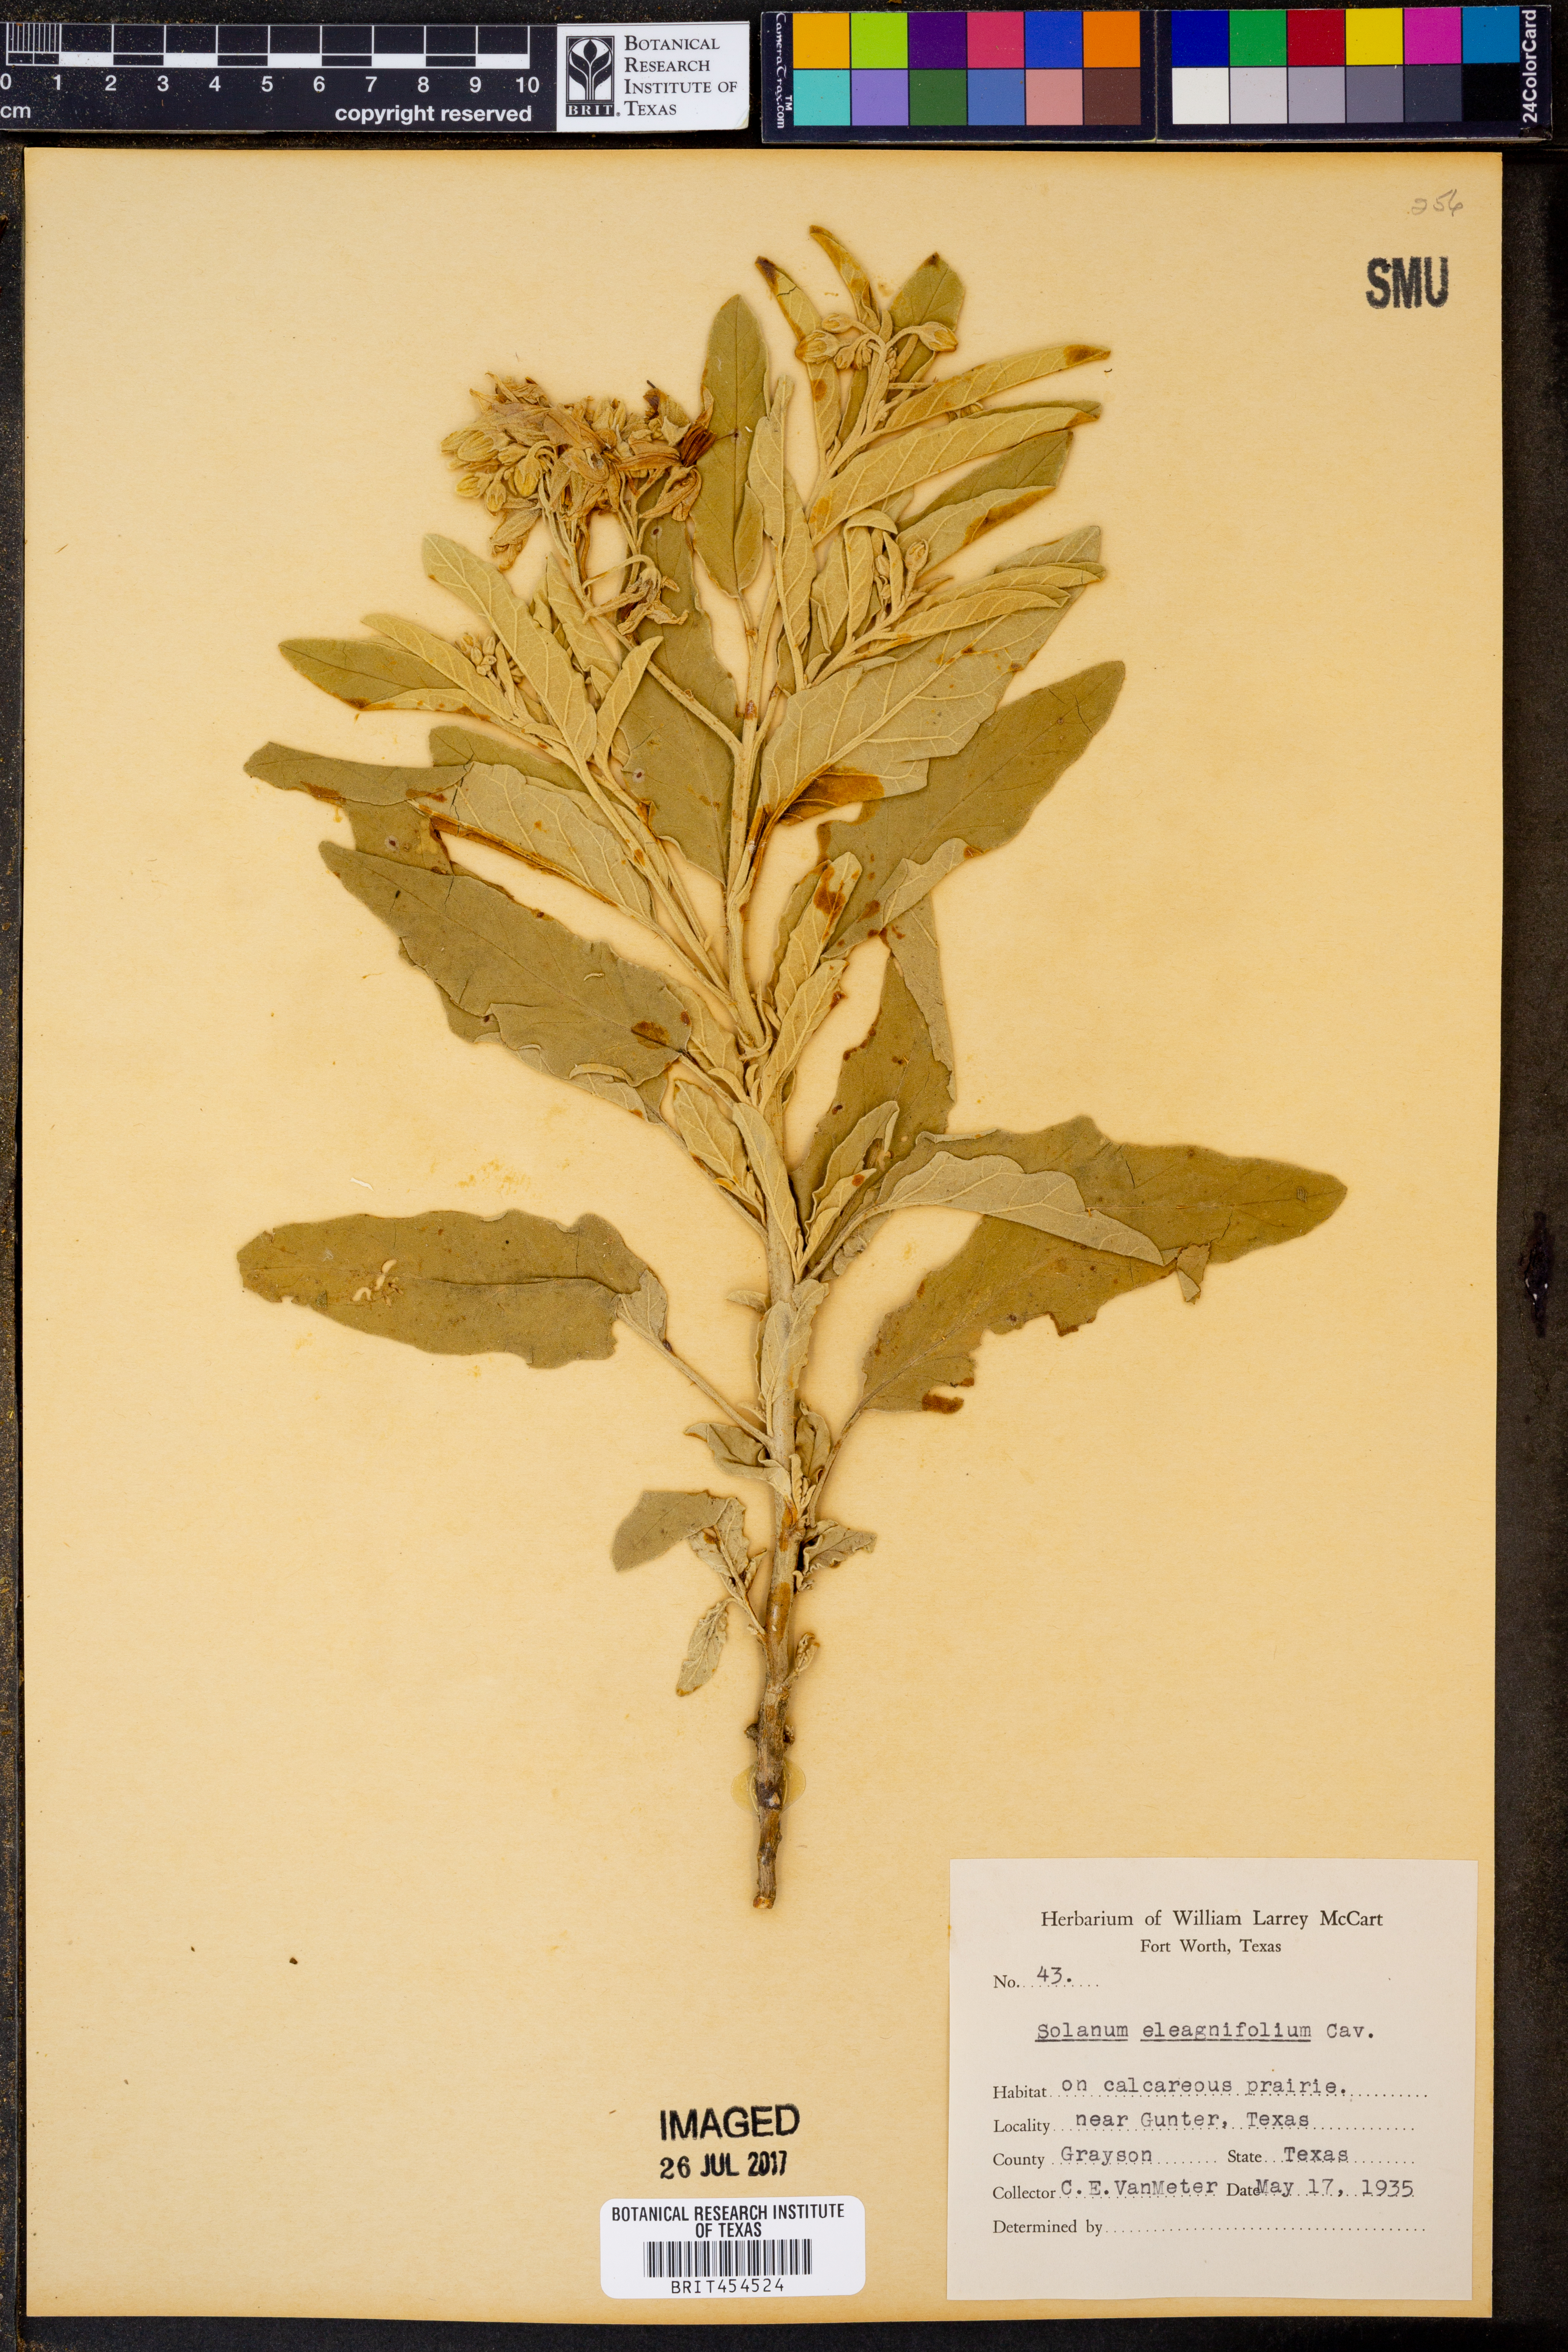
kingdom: Plantae
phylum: Tracheophyta
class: Magnoliopsida
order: Solanales
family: Solanaceae
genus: Solanum
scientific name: Solanum elaeagnifolium
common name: Silverleaf nightshade
